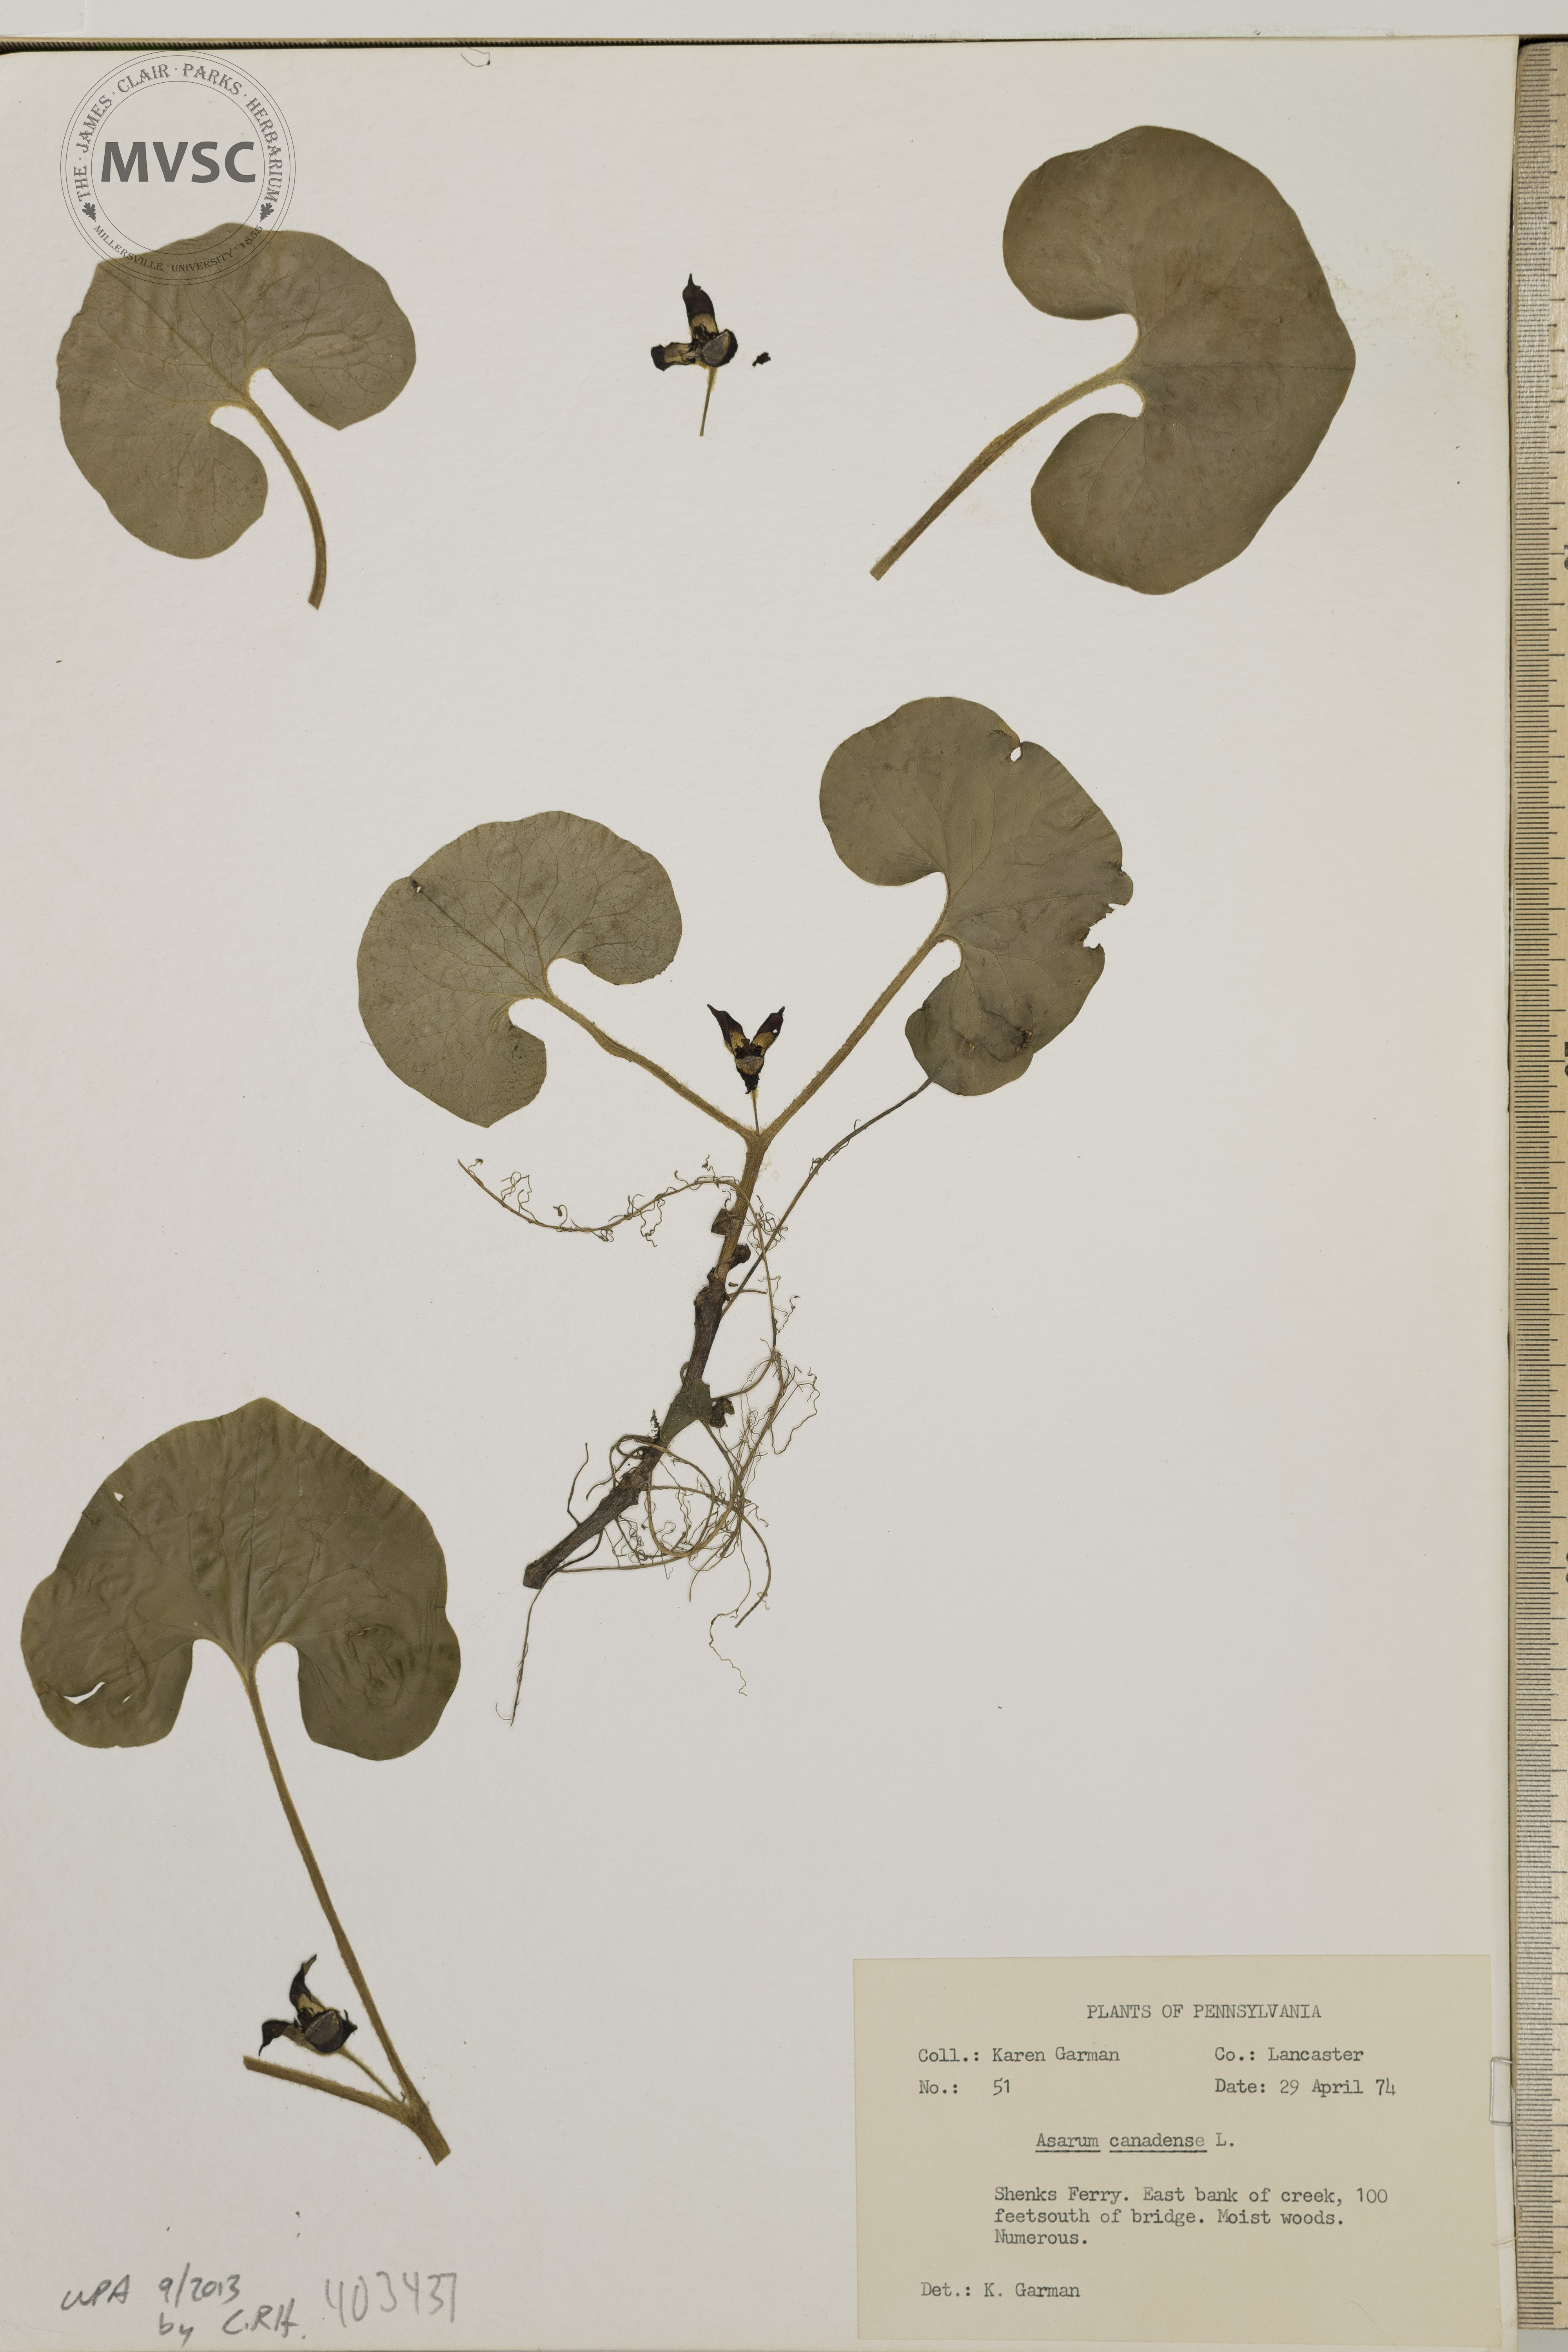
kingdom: Plantae
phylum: Tracheophyta
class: Magnoliopsida
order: Piperales
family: Aristolochiaceae
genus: Asarum
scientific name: Asarum canadense
